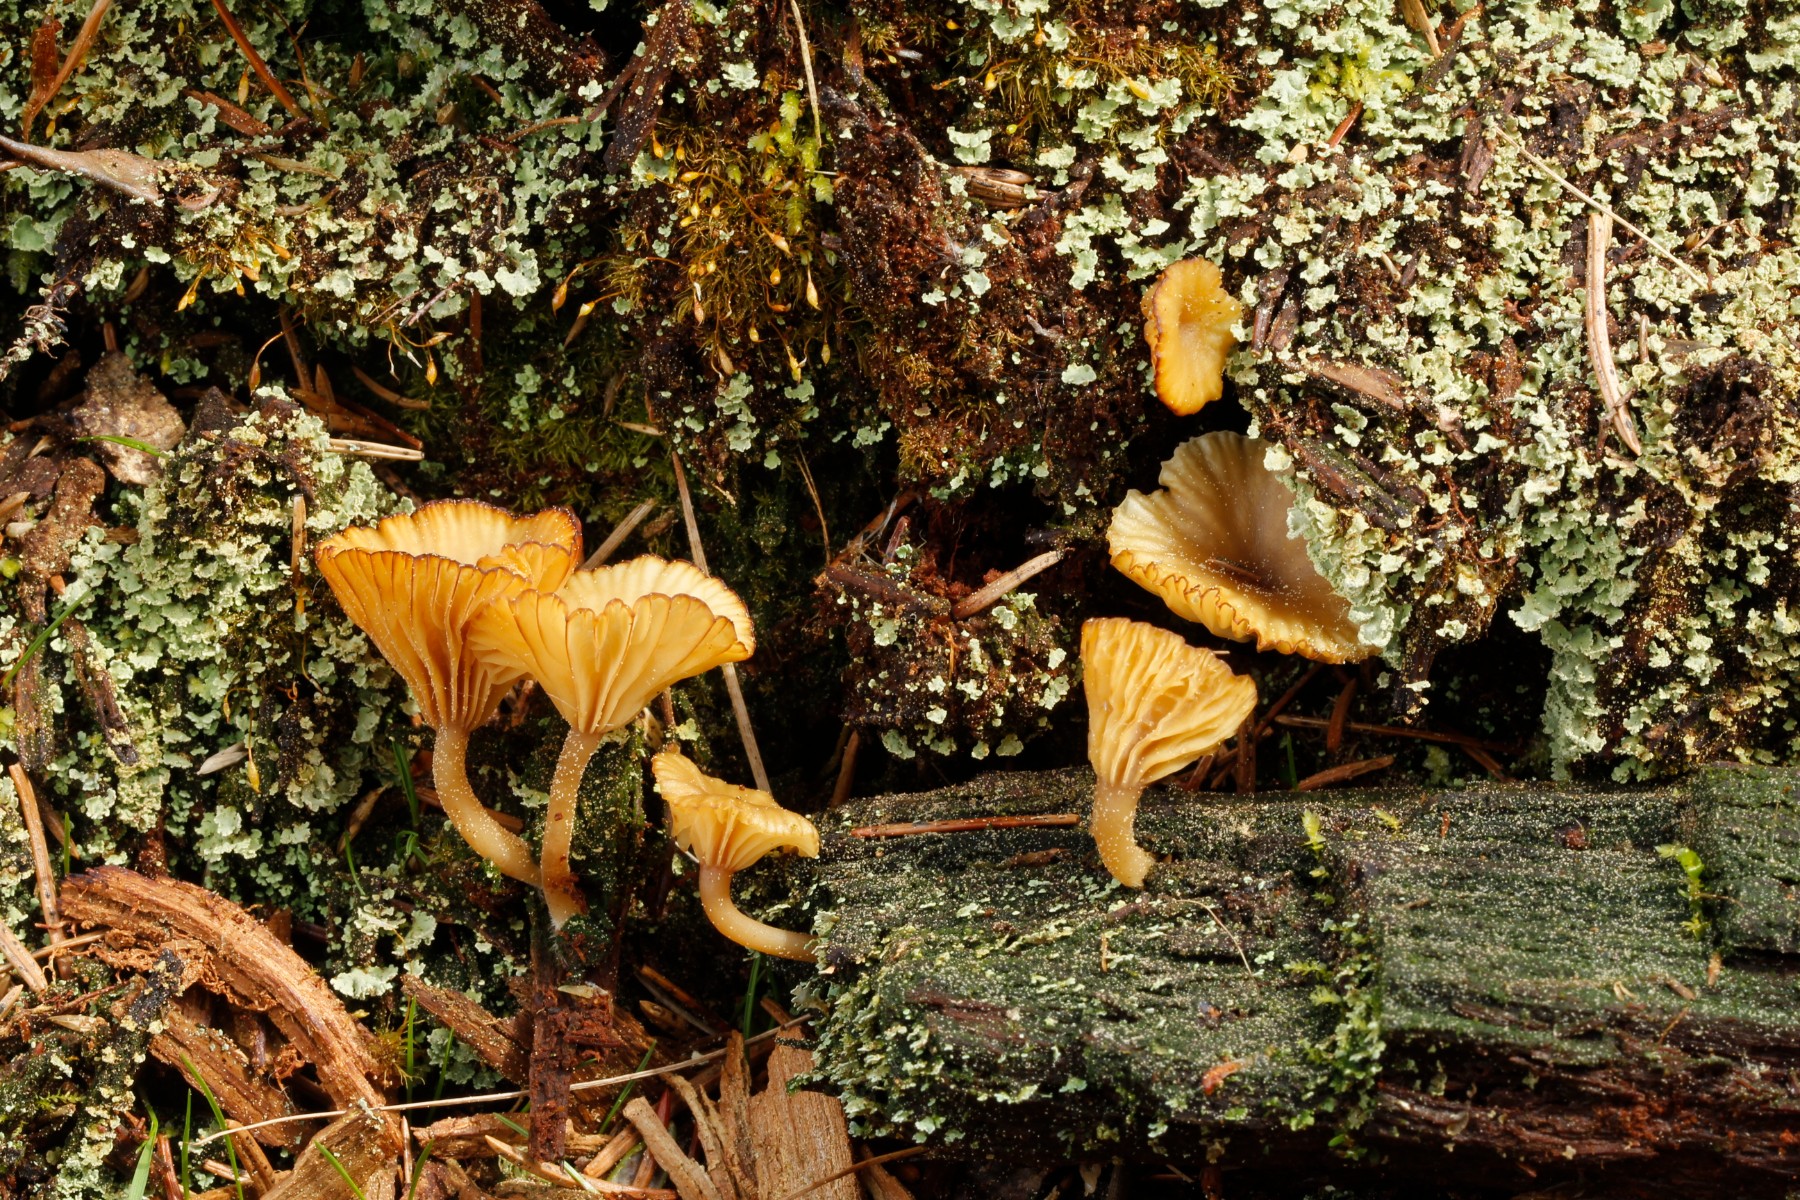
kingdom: Fungi
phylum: Basidiomycota
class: Agaricomycetes
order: Agaricales
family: Hygrophoraceae
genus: Lichenomphalia
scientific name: Lichenomphalia umbellifera
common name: tørve-lavhat
